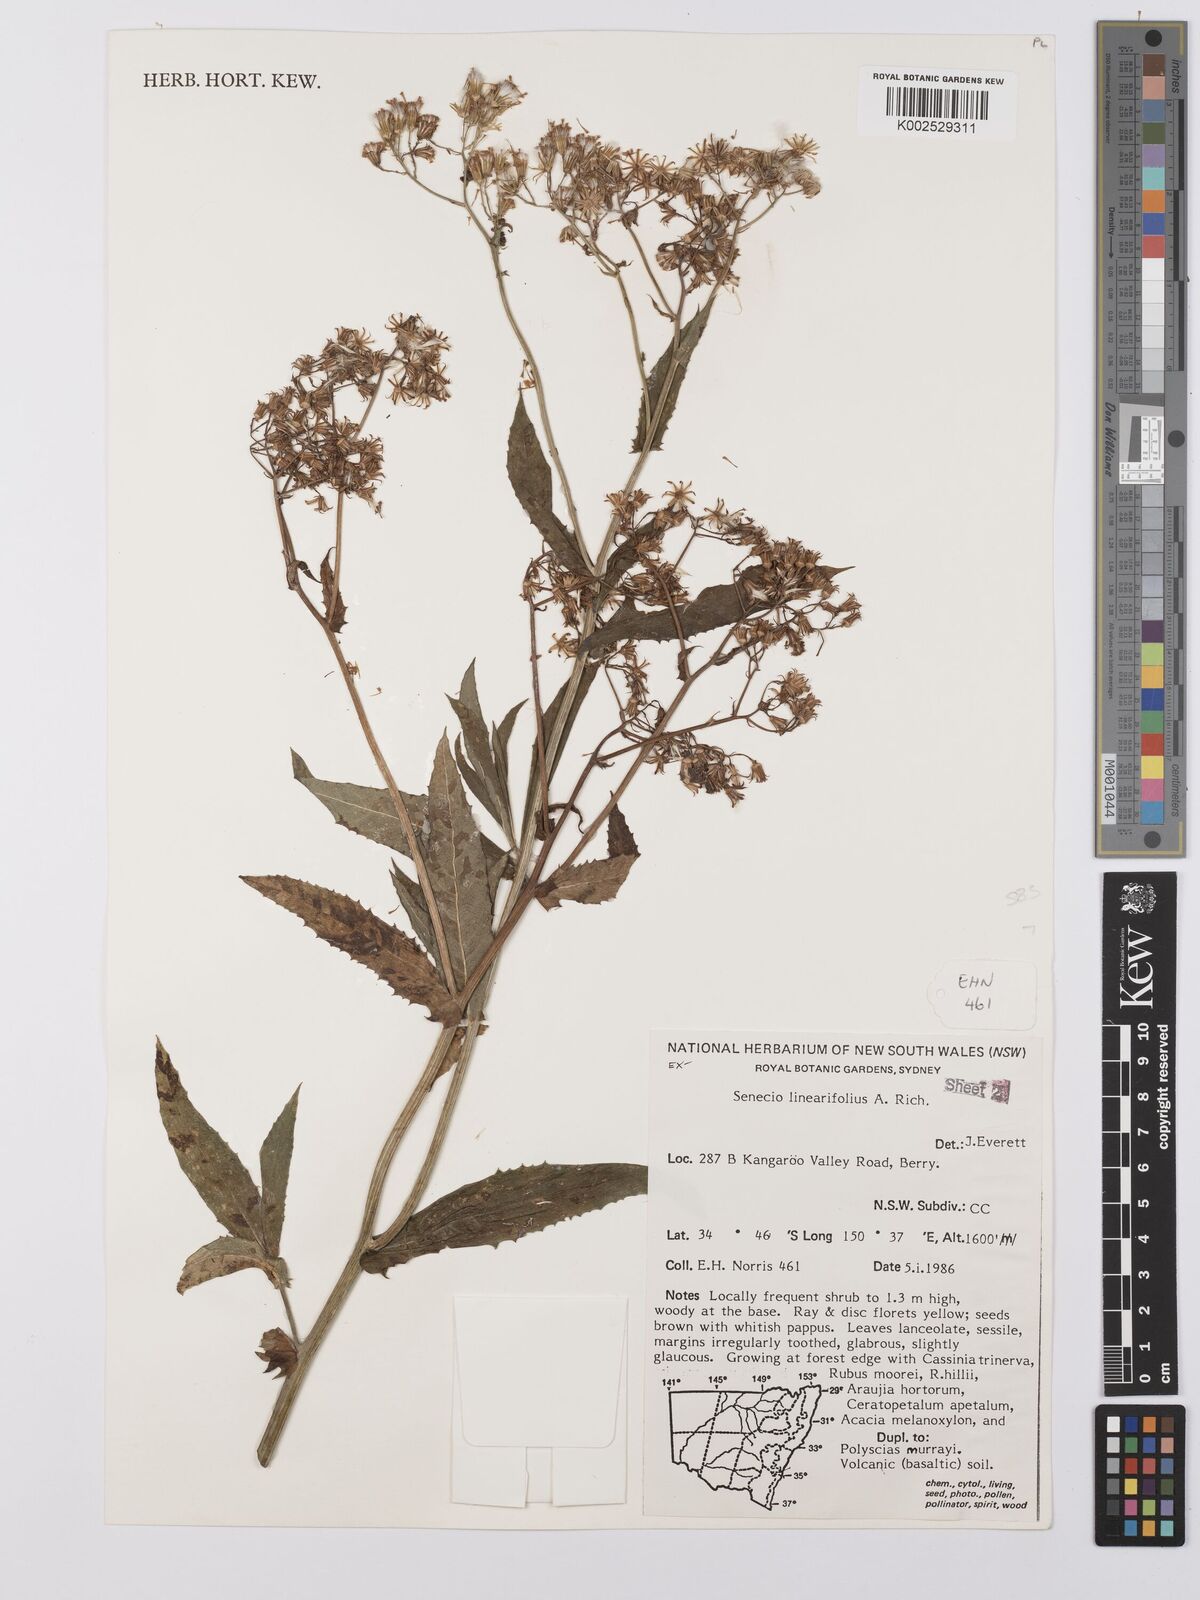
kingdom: Plantae
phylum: Tracheophyta
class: Magnoliopsida
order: Asterales
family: Asteraceae
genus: Senecio
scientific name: Senecio linearifolius
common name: Fireweed groundsel
